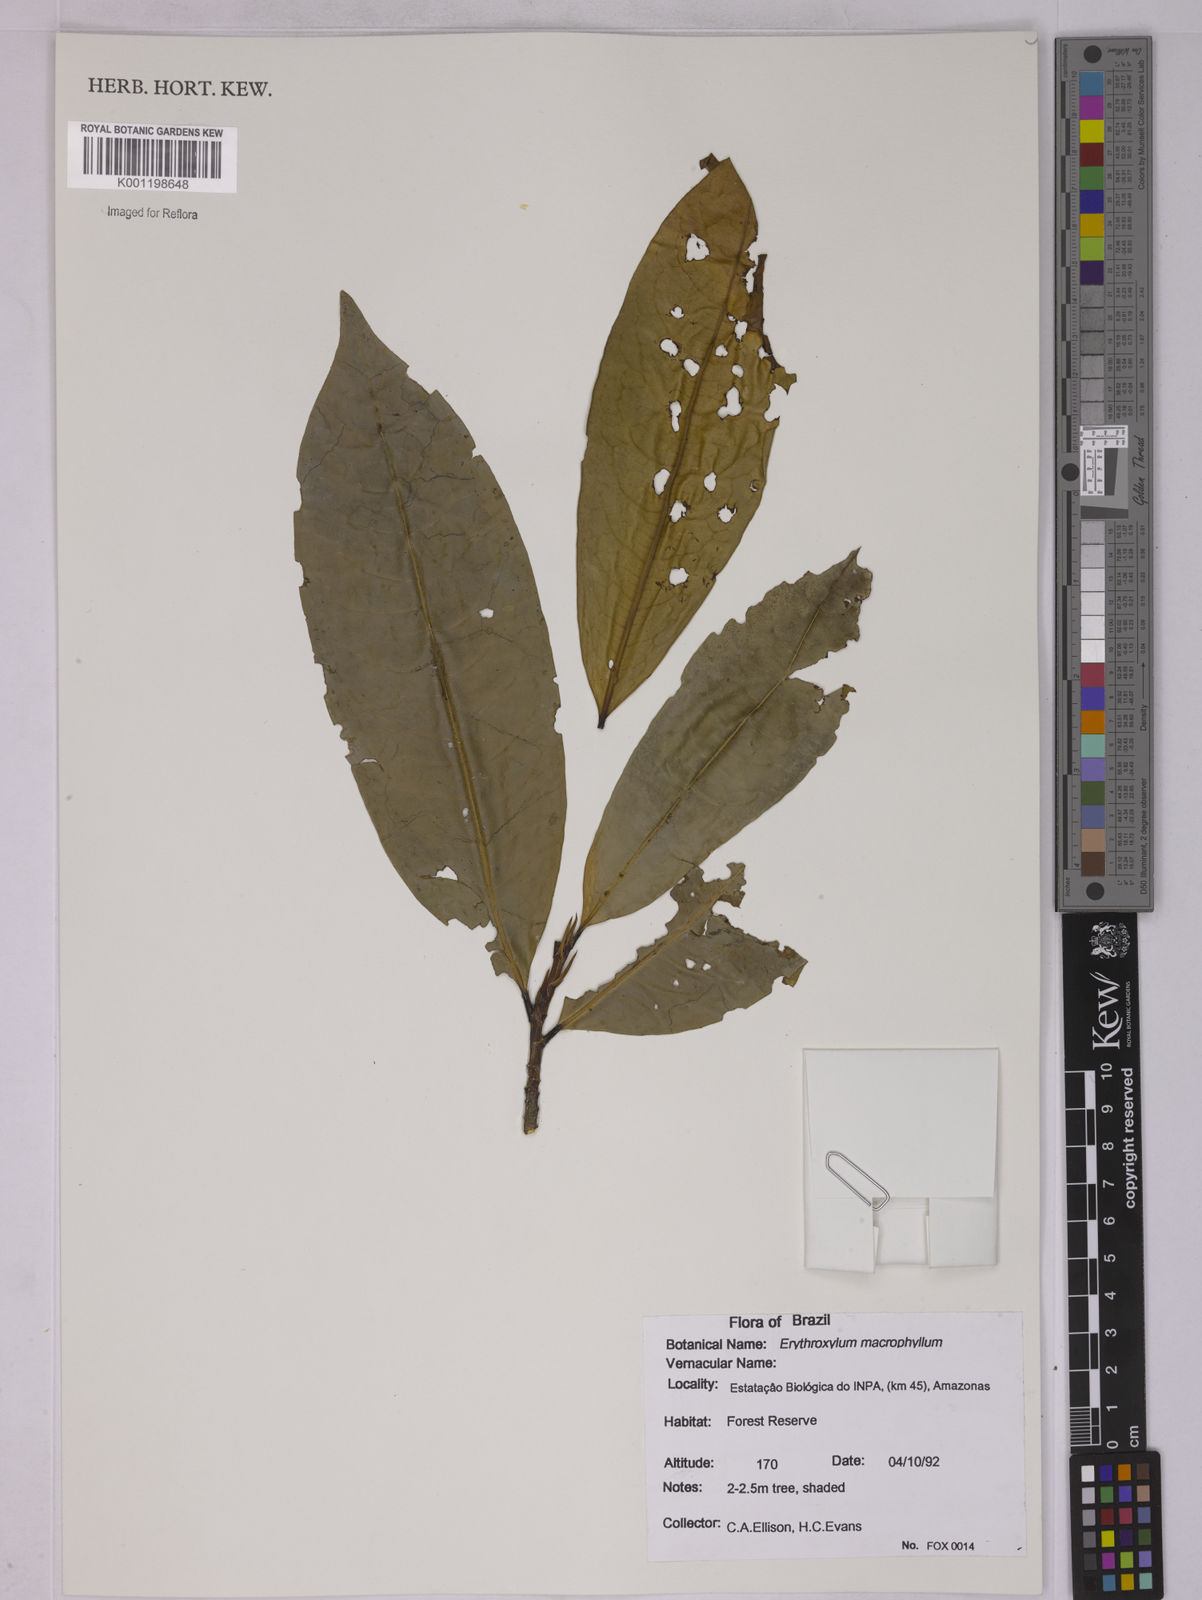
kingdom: Plantae
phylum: Tracheophyta
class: Magnoliopsida
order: Malpighiales
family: Erythroxylaceae
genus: Erythroxylum
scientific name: Erythroxylum macrophyllum
